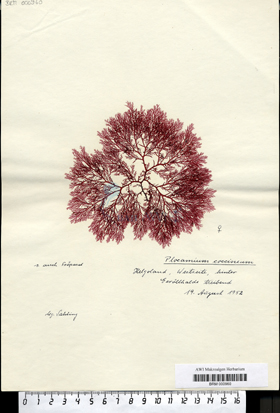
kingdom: Plantae
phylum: Rhodophyta
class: Florideophyceae
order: Plocamiales
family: Plocamiaceae
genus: Plocamium
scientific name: Plocamium cartilagineum
